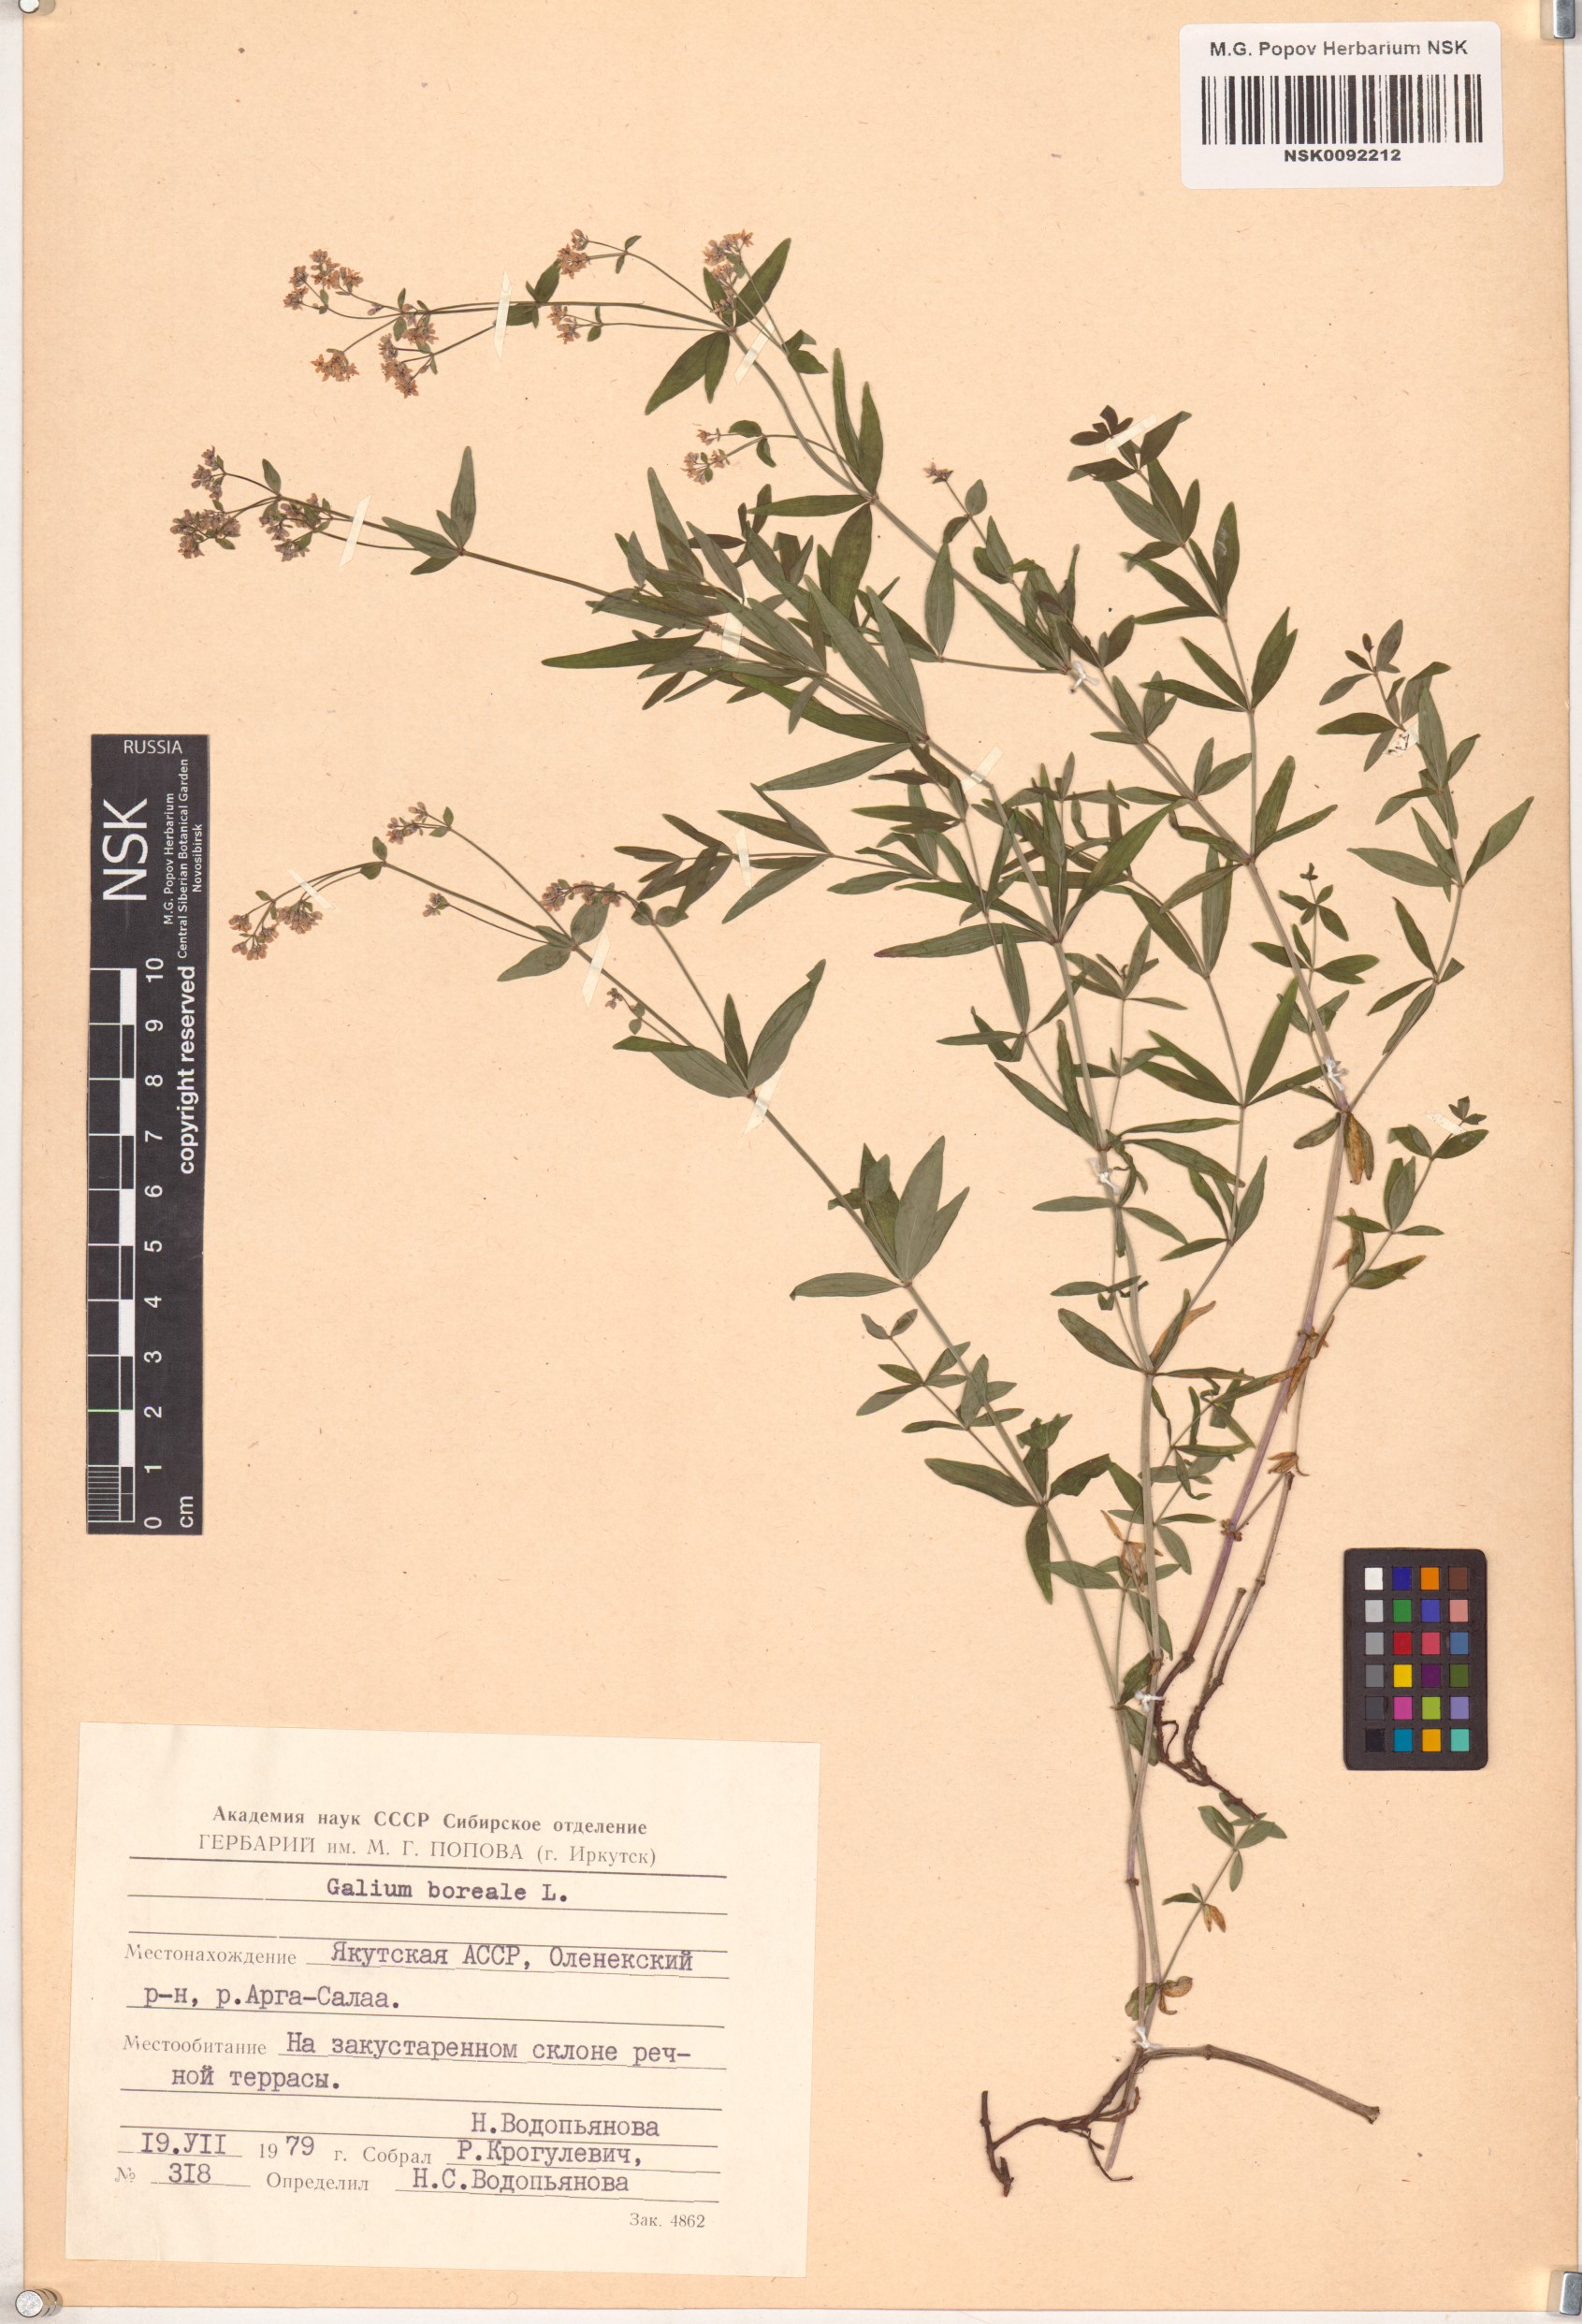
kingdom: Plantae
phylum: Tracheophyta
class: Magnoliopsida
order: Gentianales
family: Rubiaceae
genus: Galium
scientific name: Galium boreale
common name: Northern bedstraw
